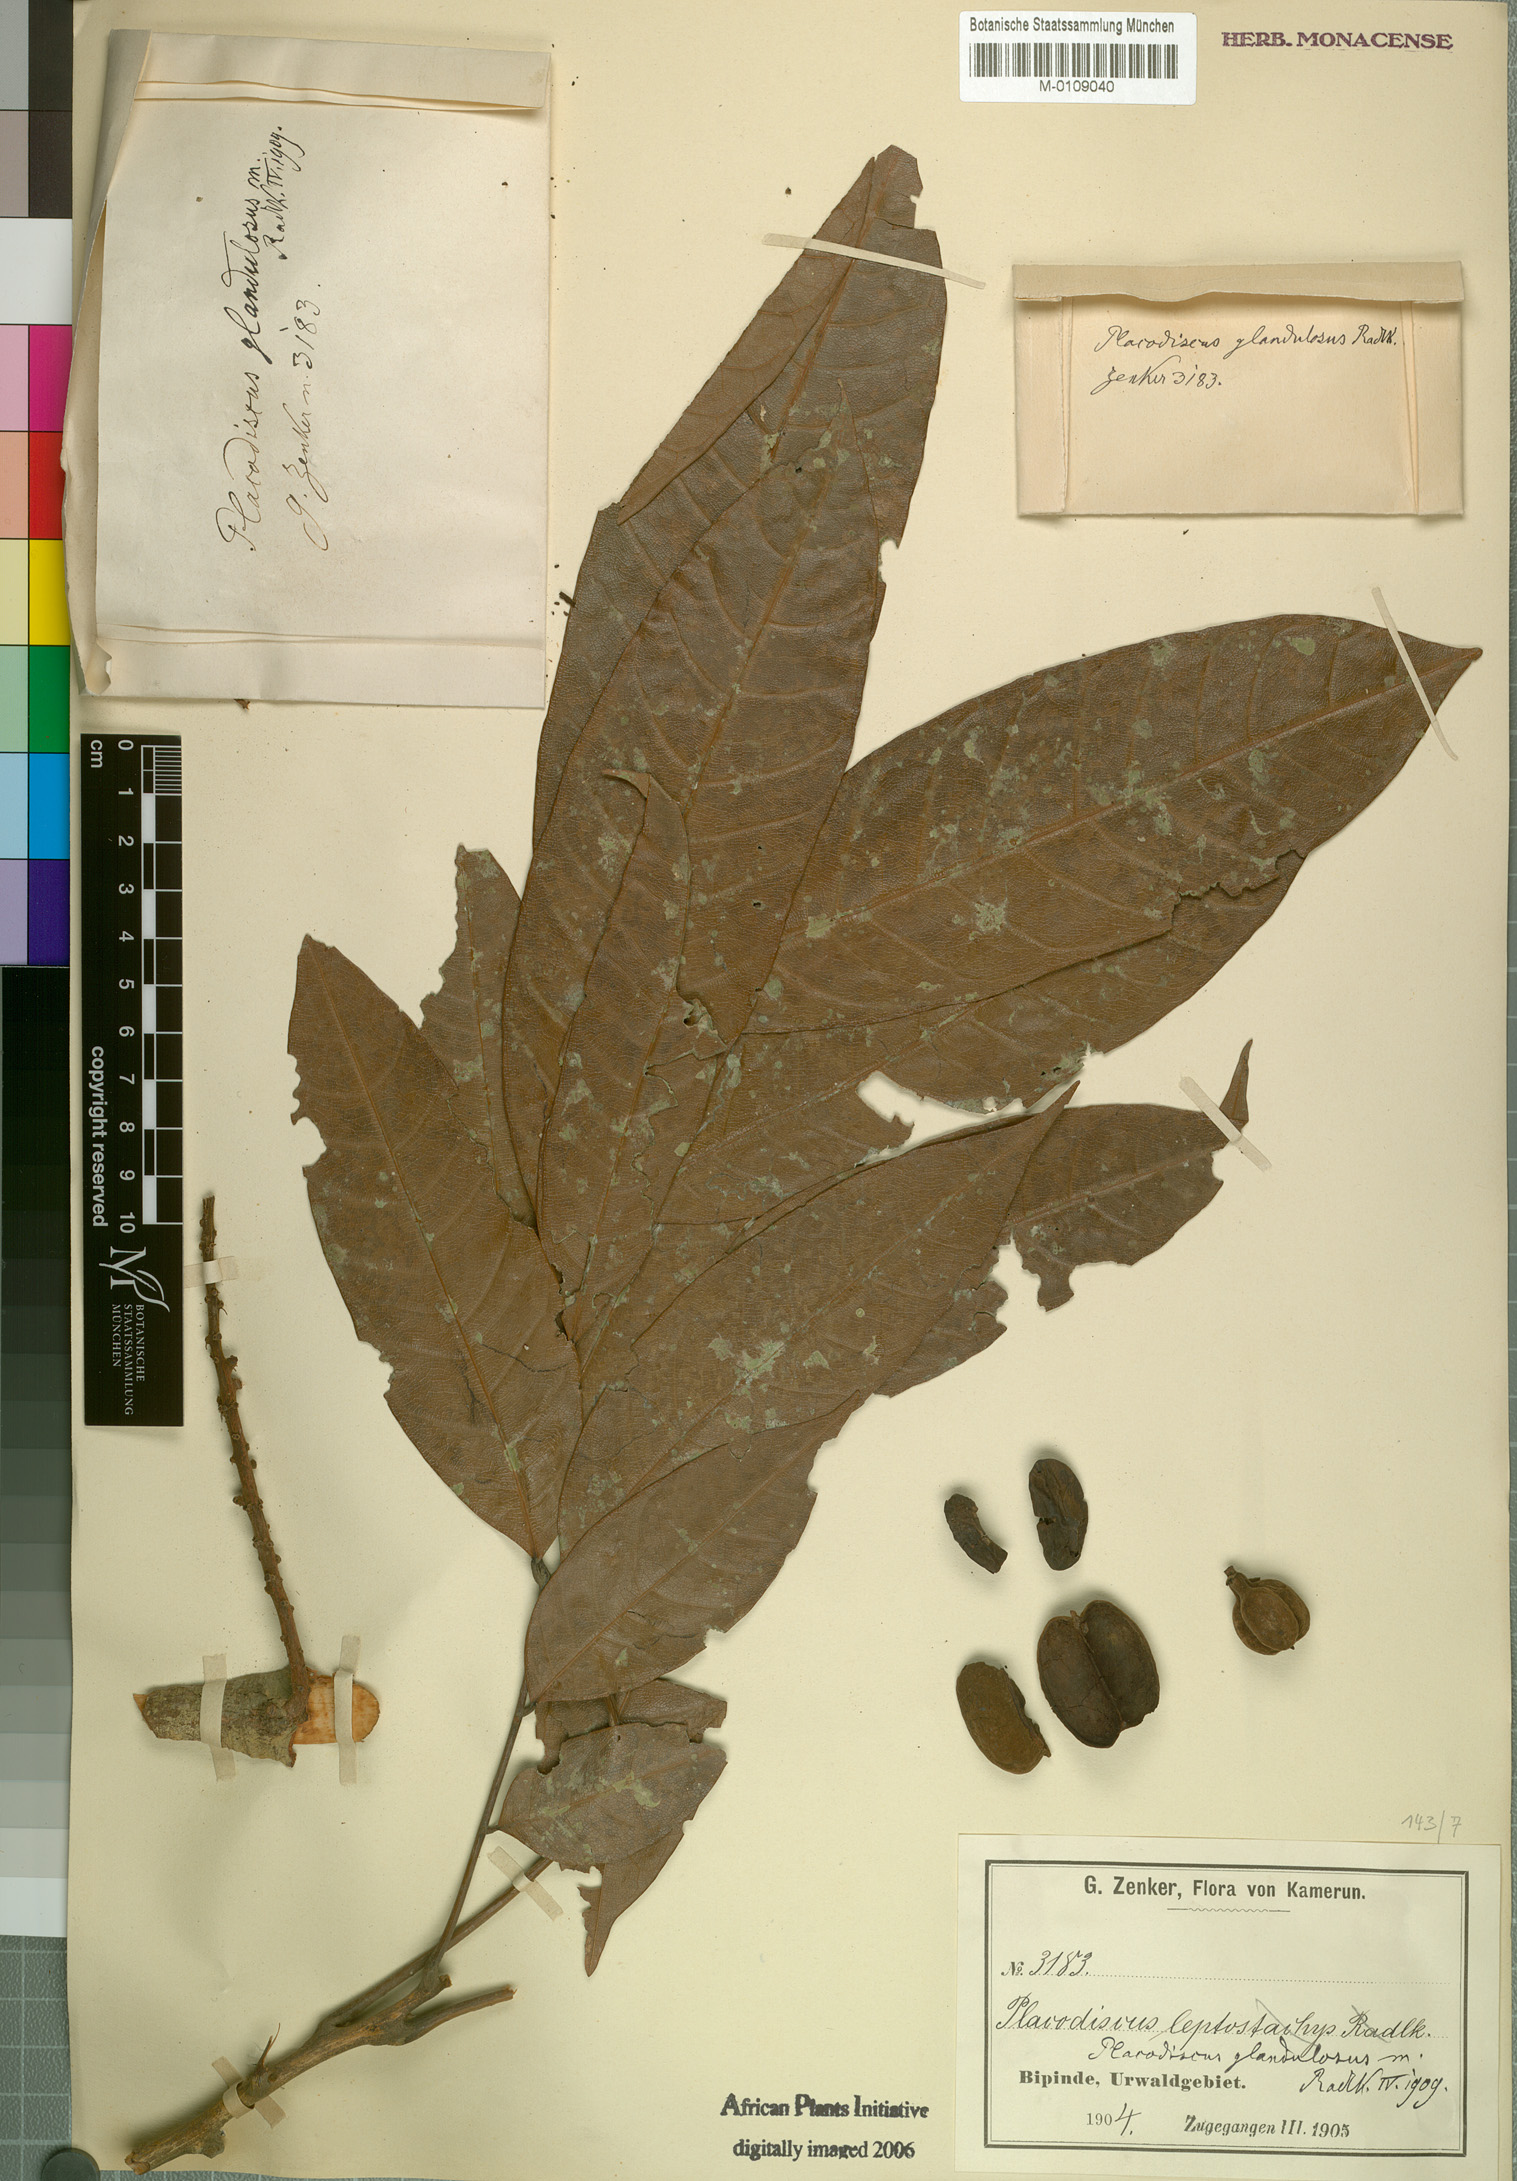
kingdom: Plantae
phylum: Tracheophyta
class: Magnoliopsida
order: Sapindales
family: Sapindaceae
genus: Placodiscus
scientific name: Placodiscus glandulosus
